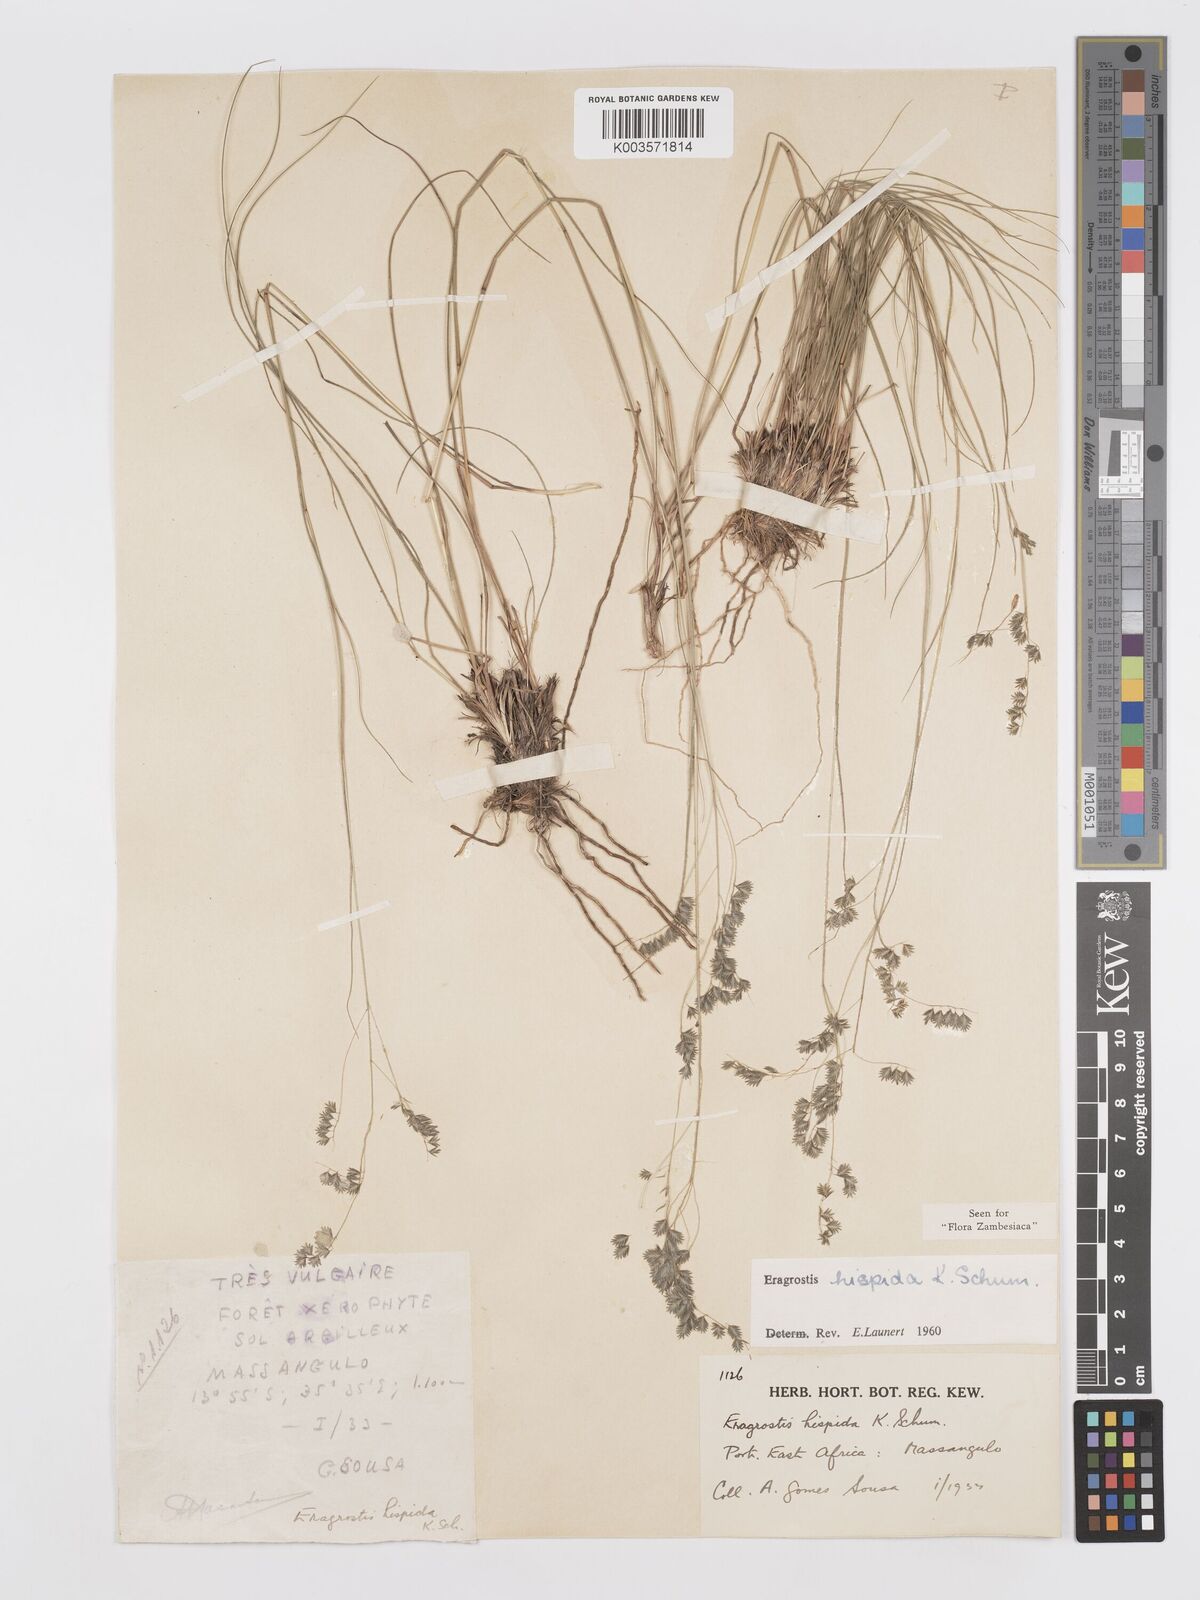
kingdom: Plantae
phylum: Tracheophyta
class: Liliopsida
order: Poales
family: Poaceae
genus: Eragrostis
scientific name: Eragrostis hispida
